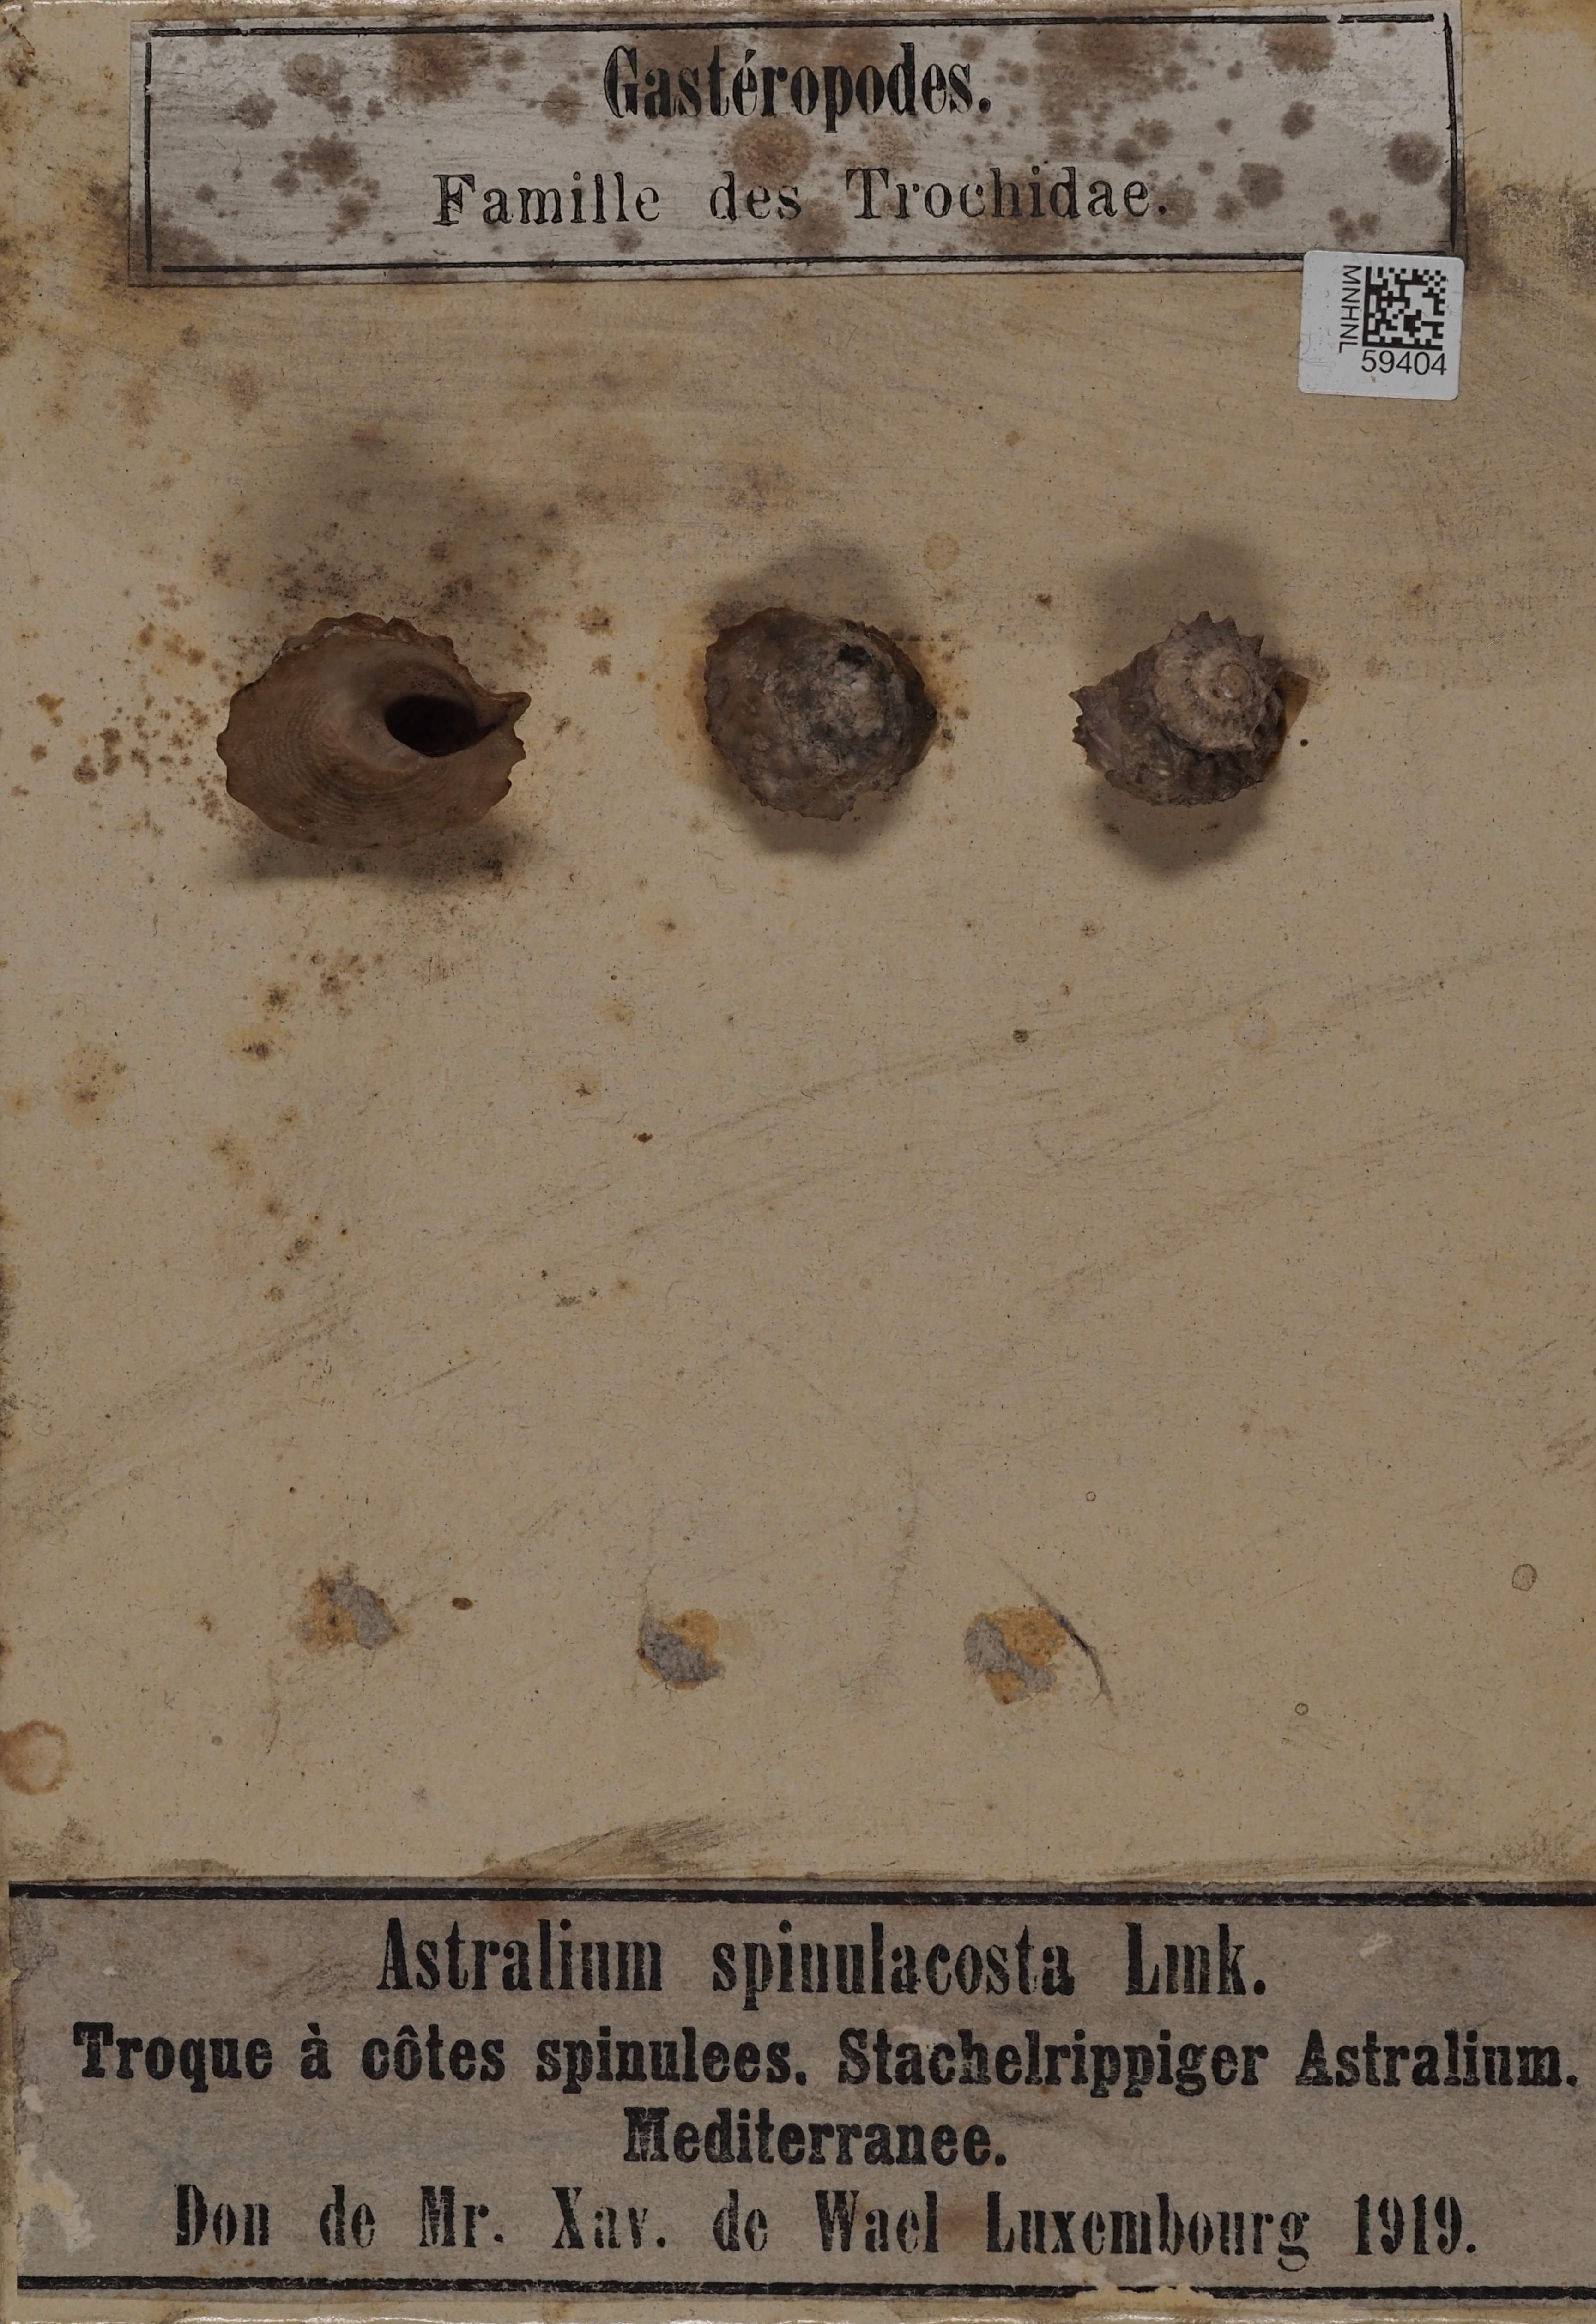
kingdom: Animalia
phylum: Mollusca
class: Gastropoda
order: Trochida
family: Turbinidae
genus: Astralium
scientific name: Astralium
